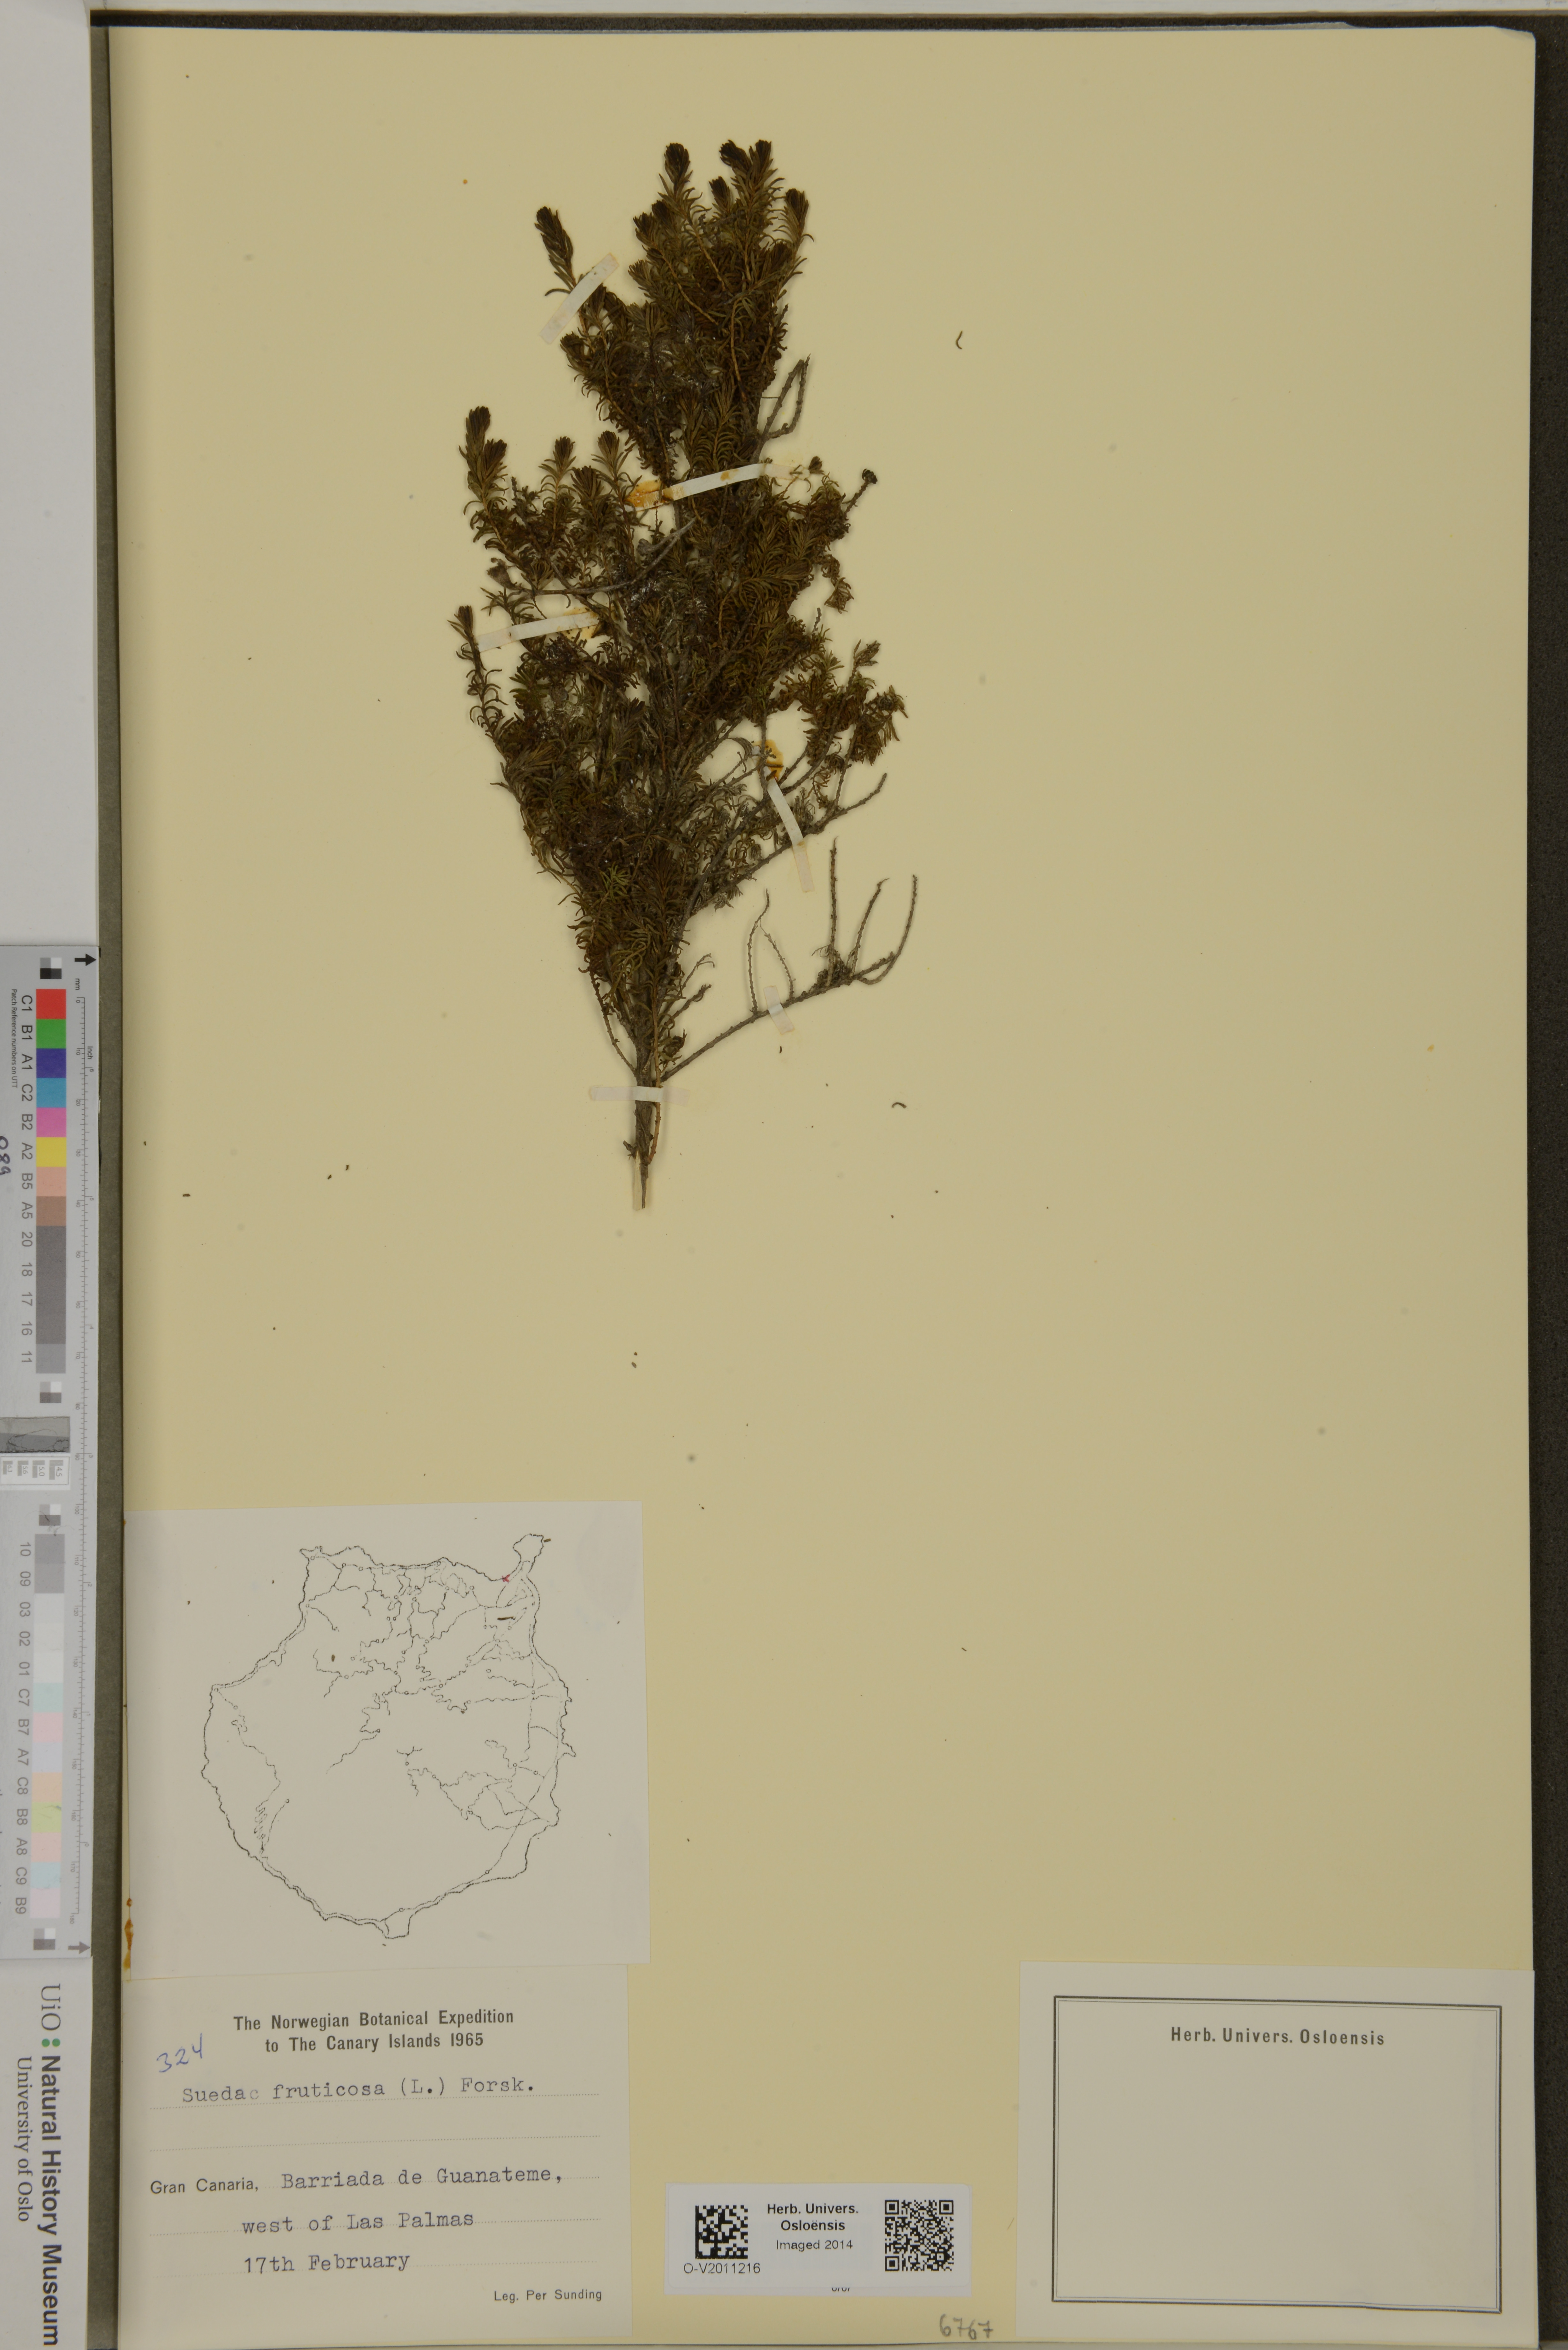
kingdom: Plantae
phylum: Tracheophyta
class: Magnoliopsida
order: Caryophyllales
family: Amaranthaceae
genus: Suaeda
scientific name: Suaeda vera
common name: Shrubby sea-blite
